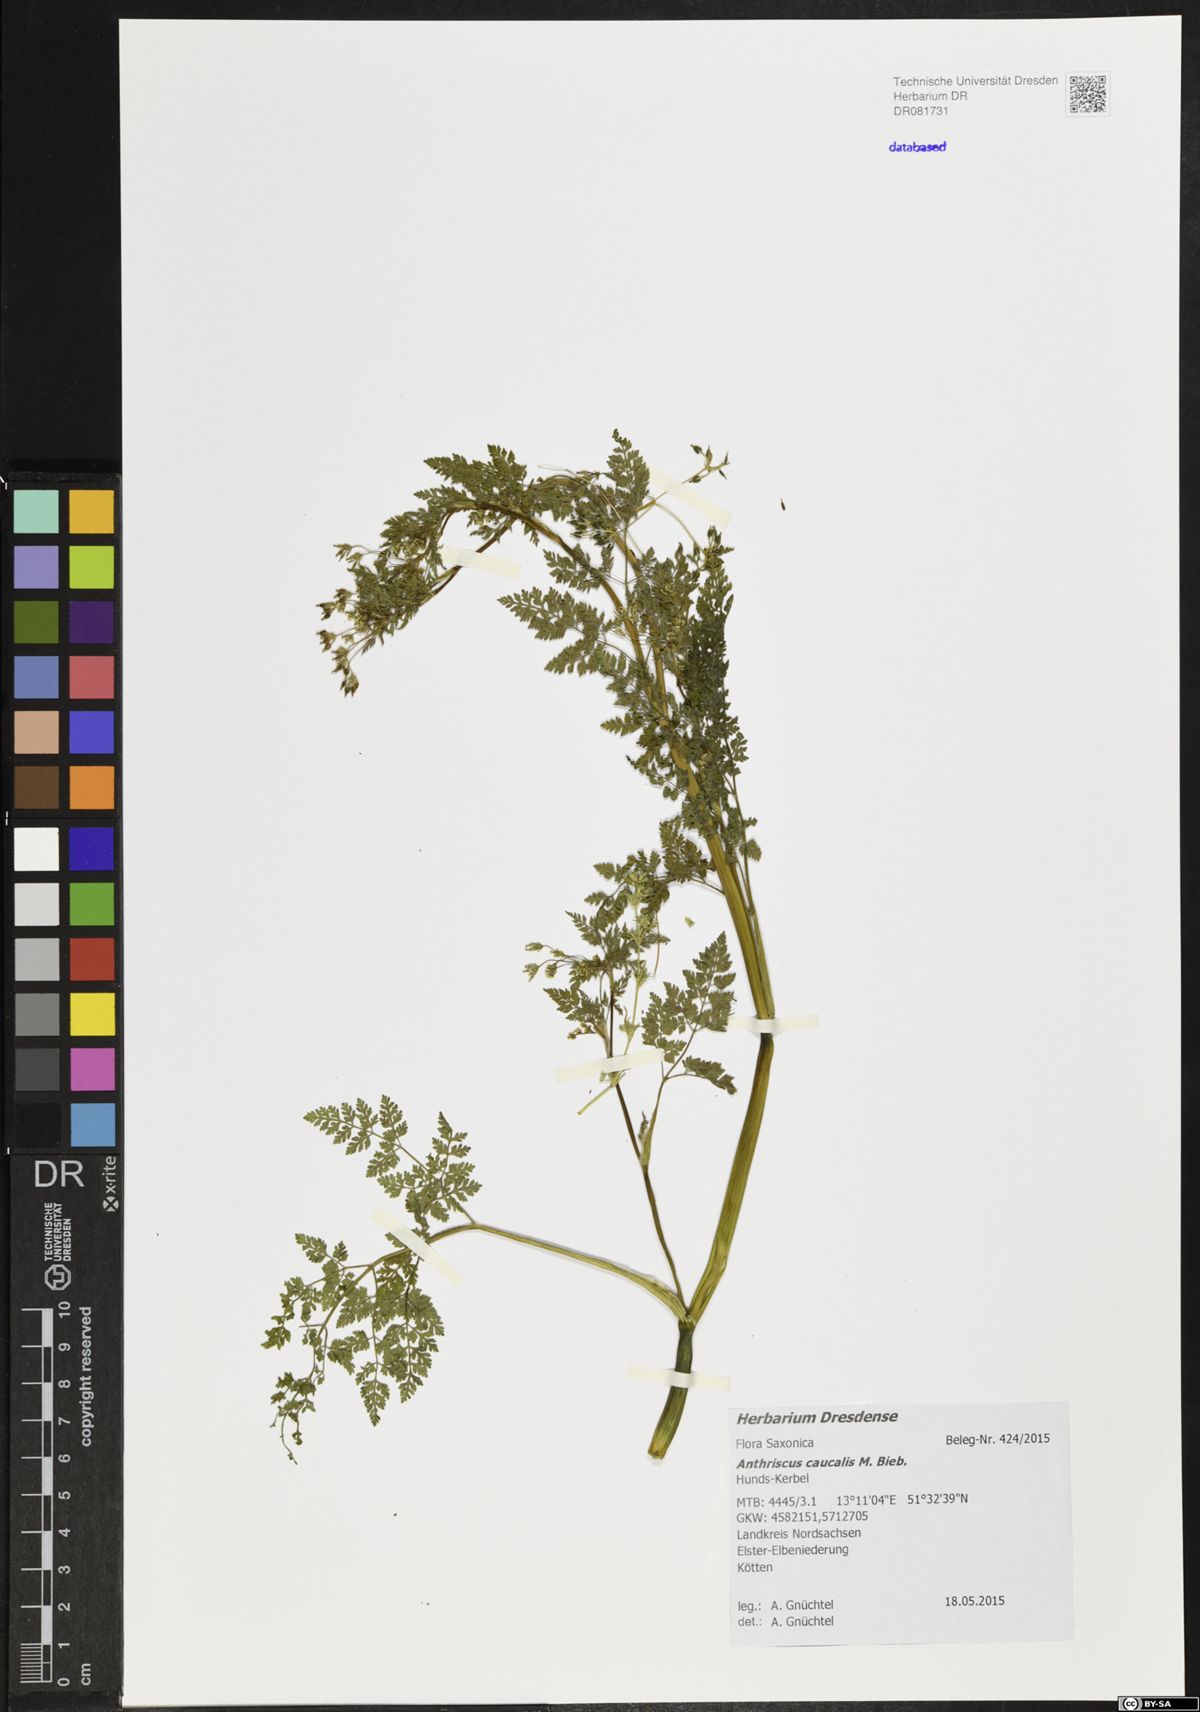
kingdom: Plantae
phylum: Tracheophyta
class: Magnoliopsida
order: Apiales
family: Apiaceae
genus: Anthriscus
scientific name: Anthriscus caucalis
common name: Bur chervil
